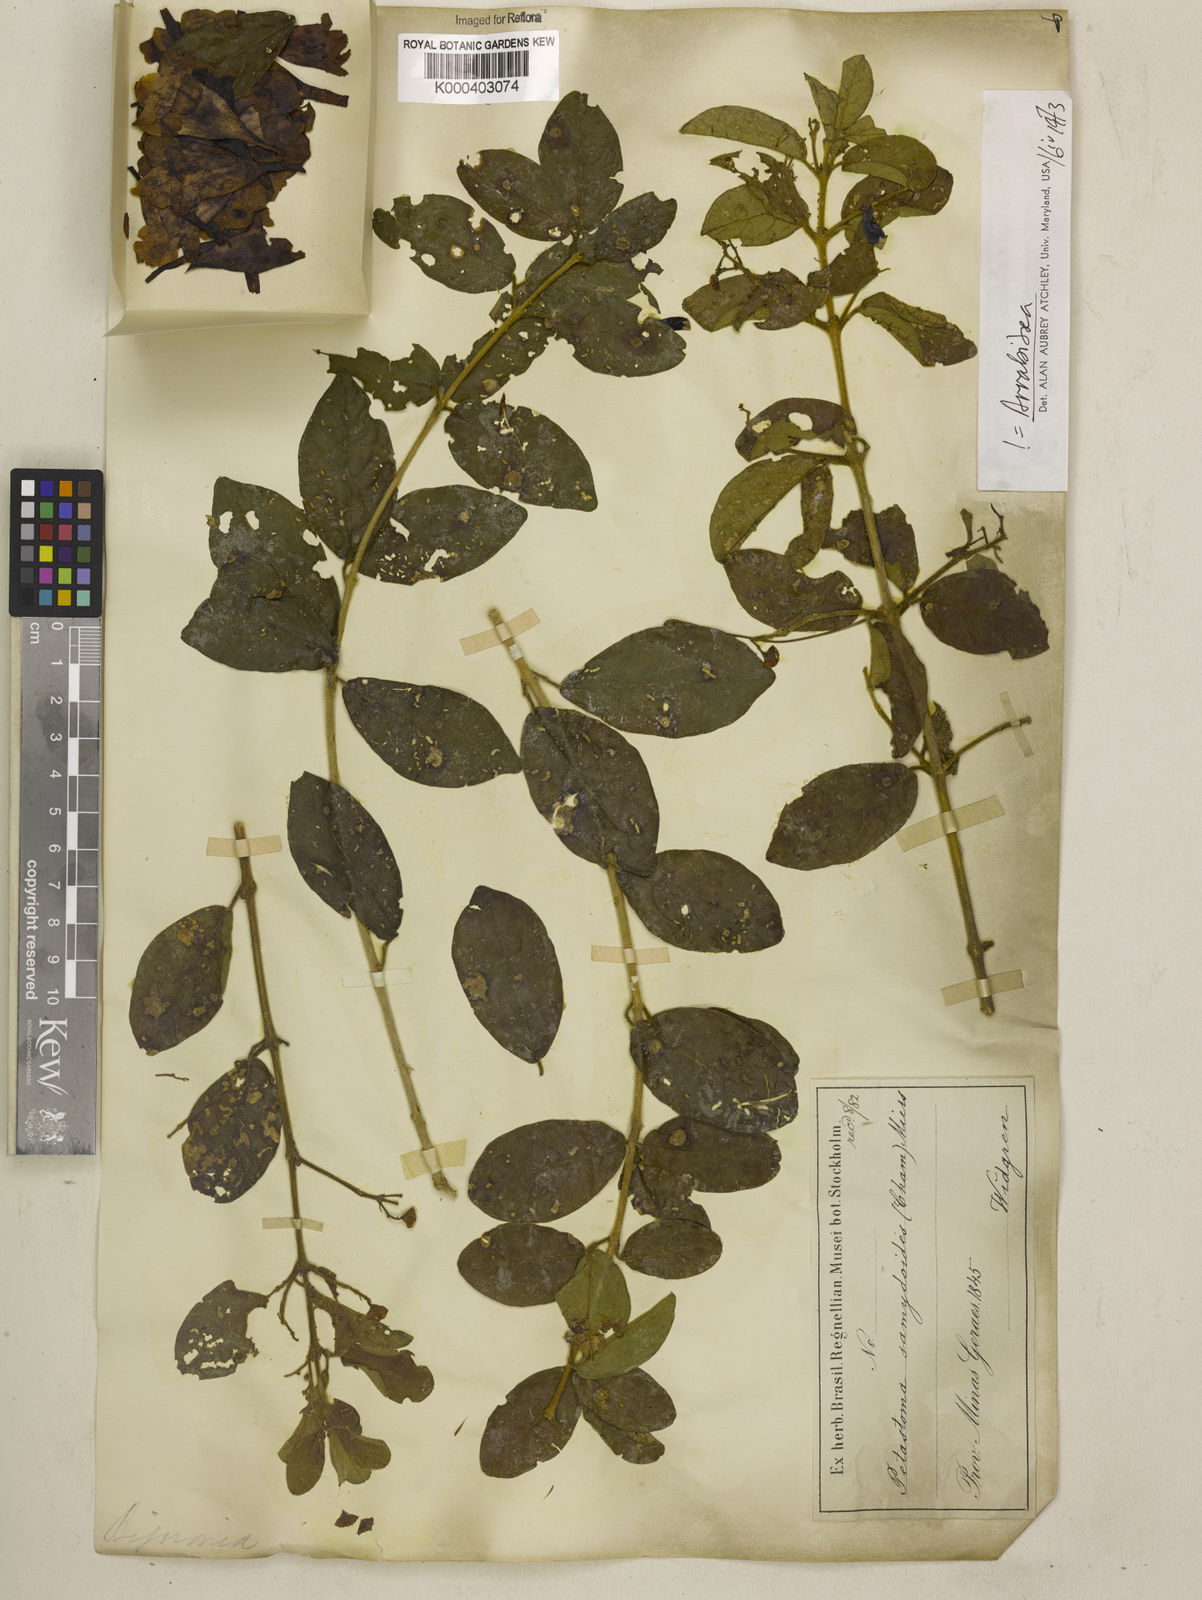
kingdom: Plantae
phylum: Tracheophyta
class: Magnoliopsida
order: Lamiales
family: Bignoniaceae
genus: Fridericia
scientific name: Fridericia samydoides
